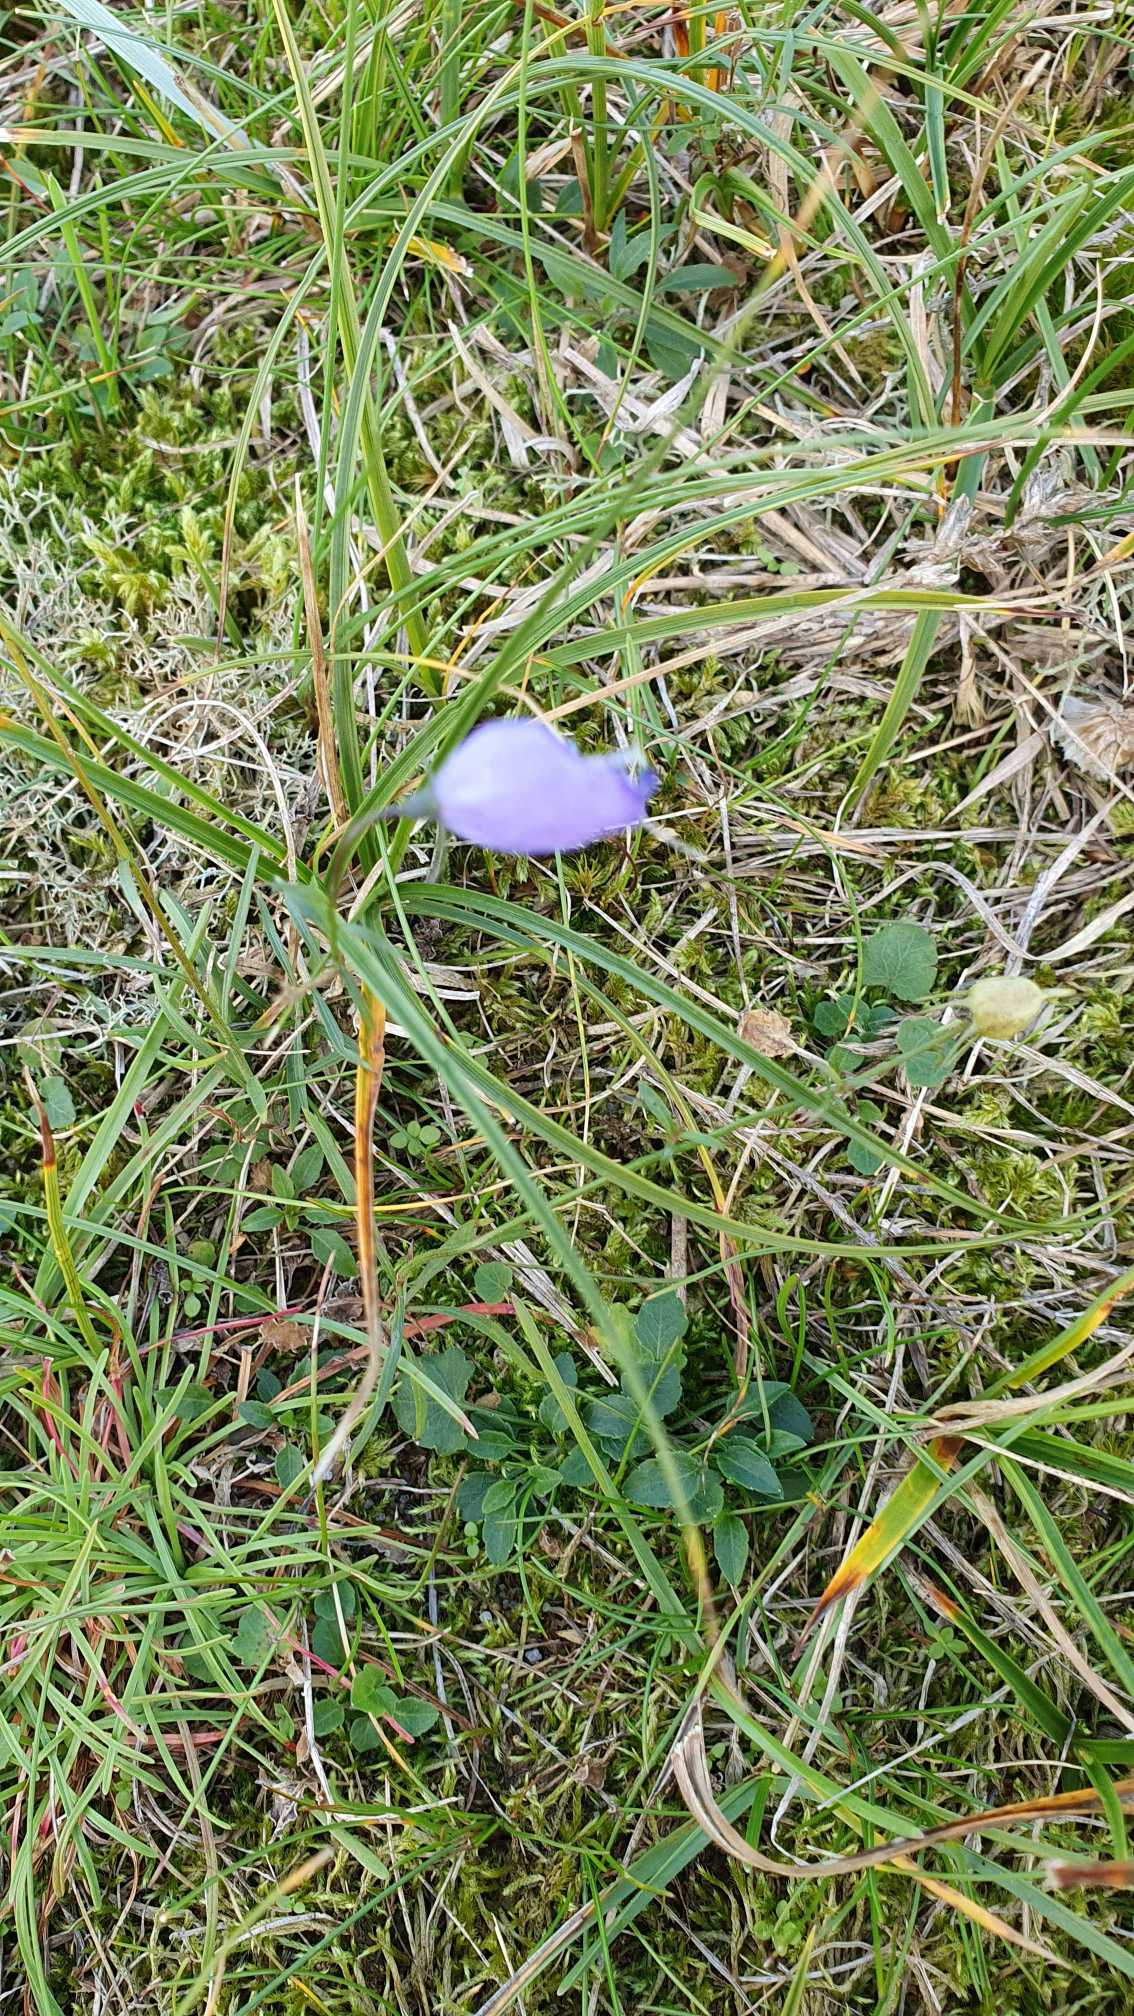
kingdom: Plantae
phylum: Tracheophyta
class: Magnoliopsida
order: Asterales
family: Campanulaceae
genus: Campanula
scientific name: Campanula rotundifolia
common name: Liden klokke
